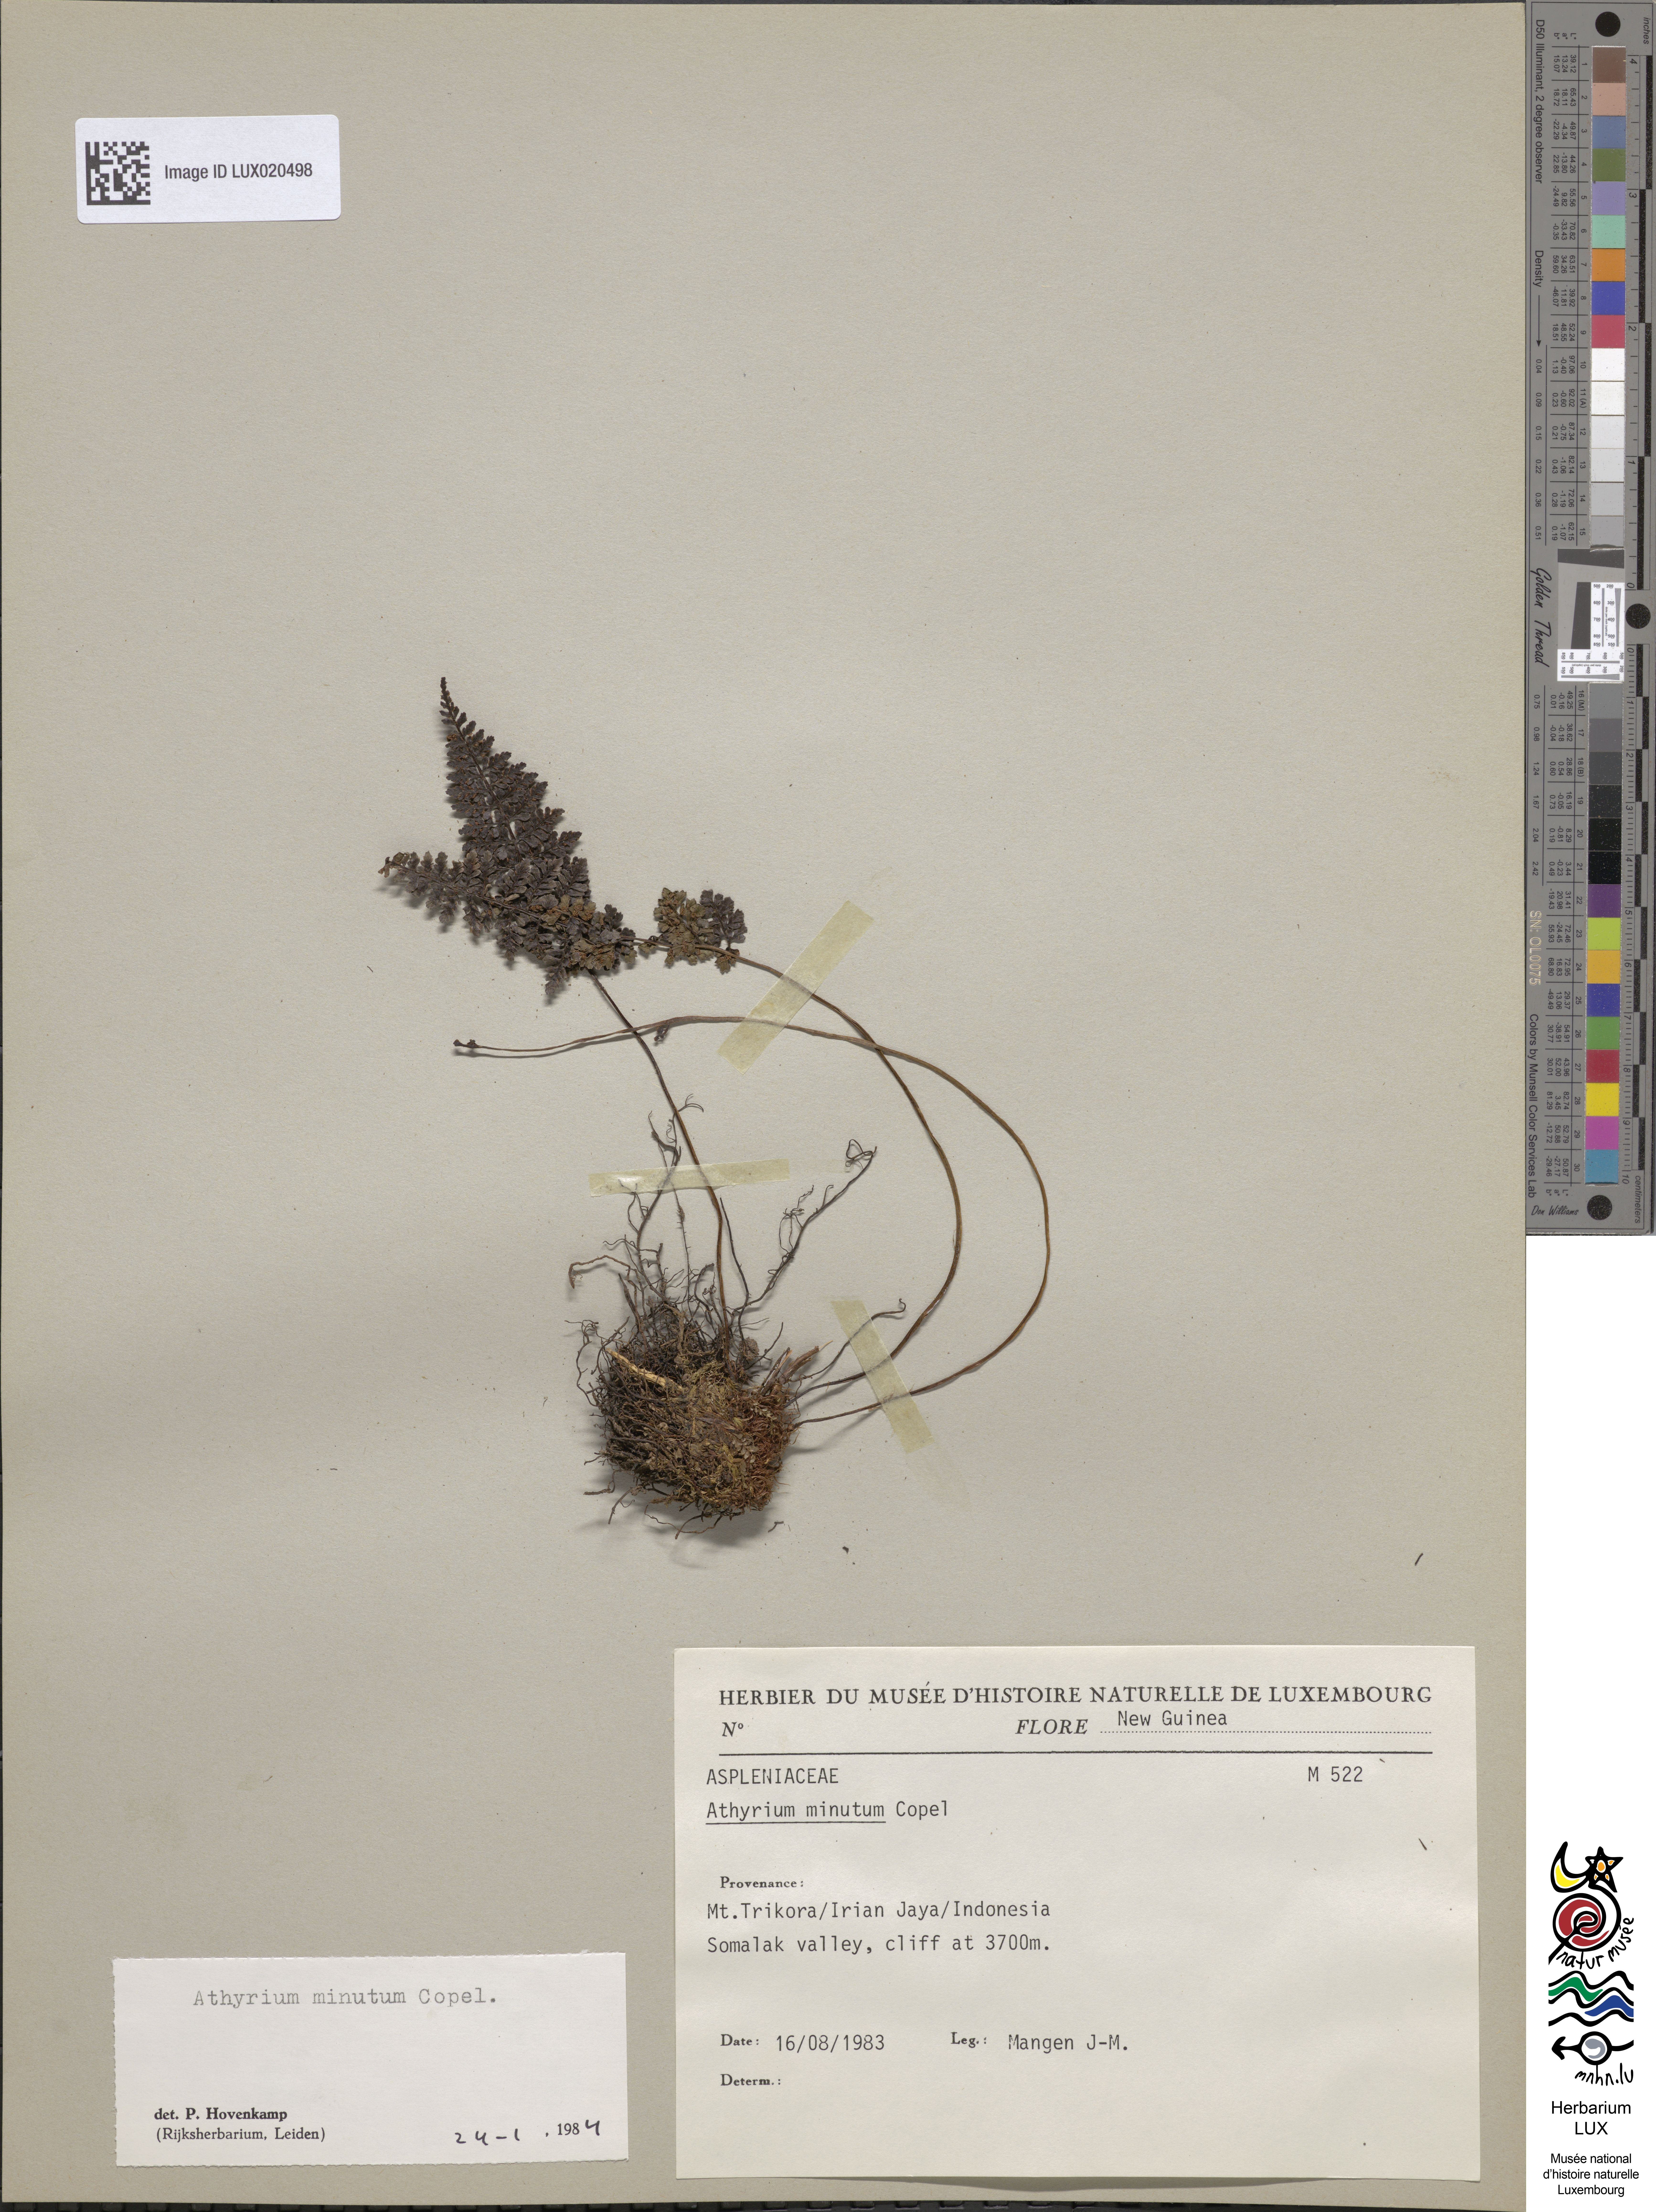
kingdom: Plantae
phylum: Tracheophyta
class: Polypodiopsida
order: Polypodiales
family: Athyriaceae
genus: Athyrium
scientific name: Athyrium minutum
